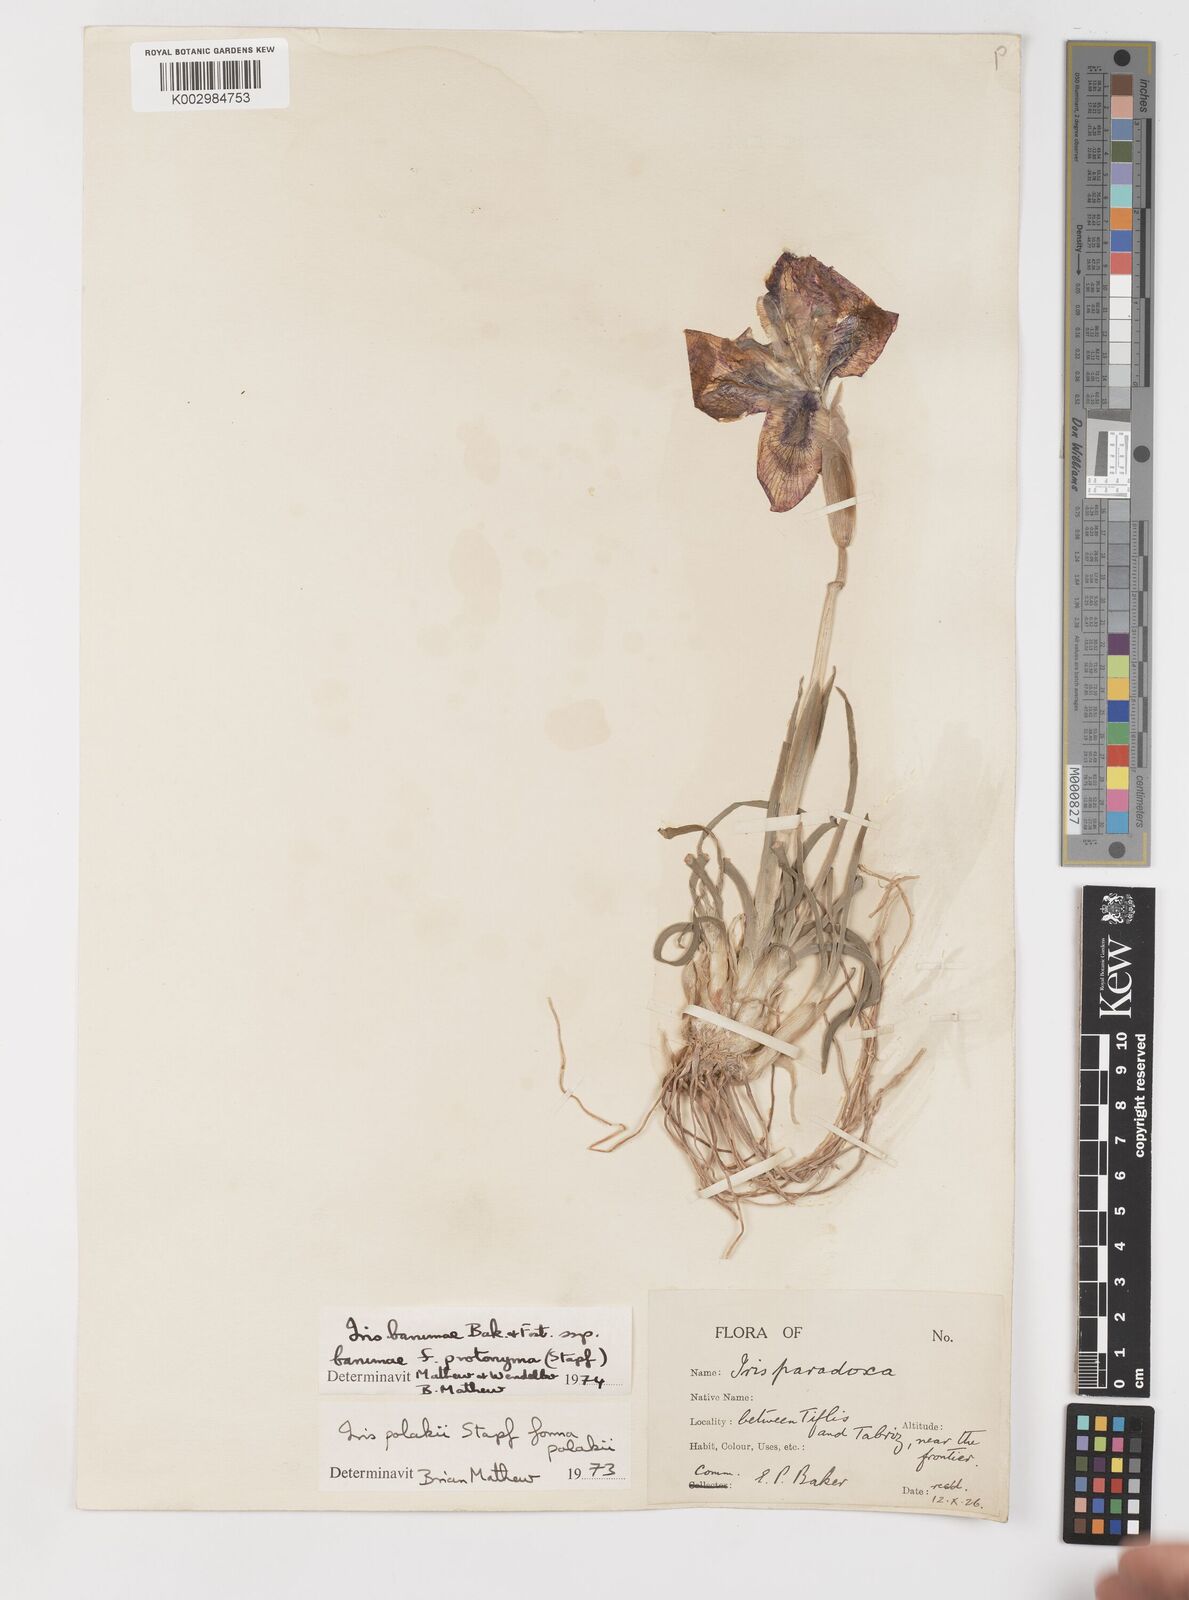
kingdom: Plantae
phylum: Tracheophyta
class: Liliopsida
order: Asparagales
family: Iridaceae
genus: Iris
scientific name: Iris polakii
